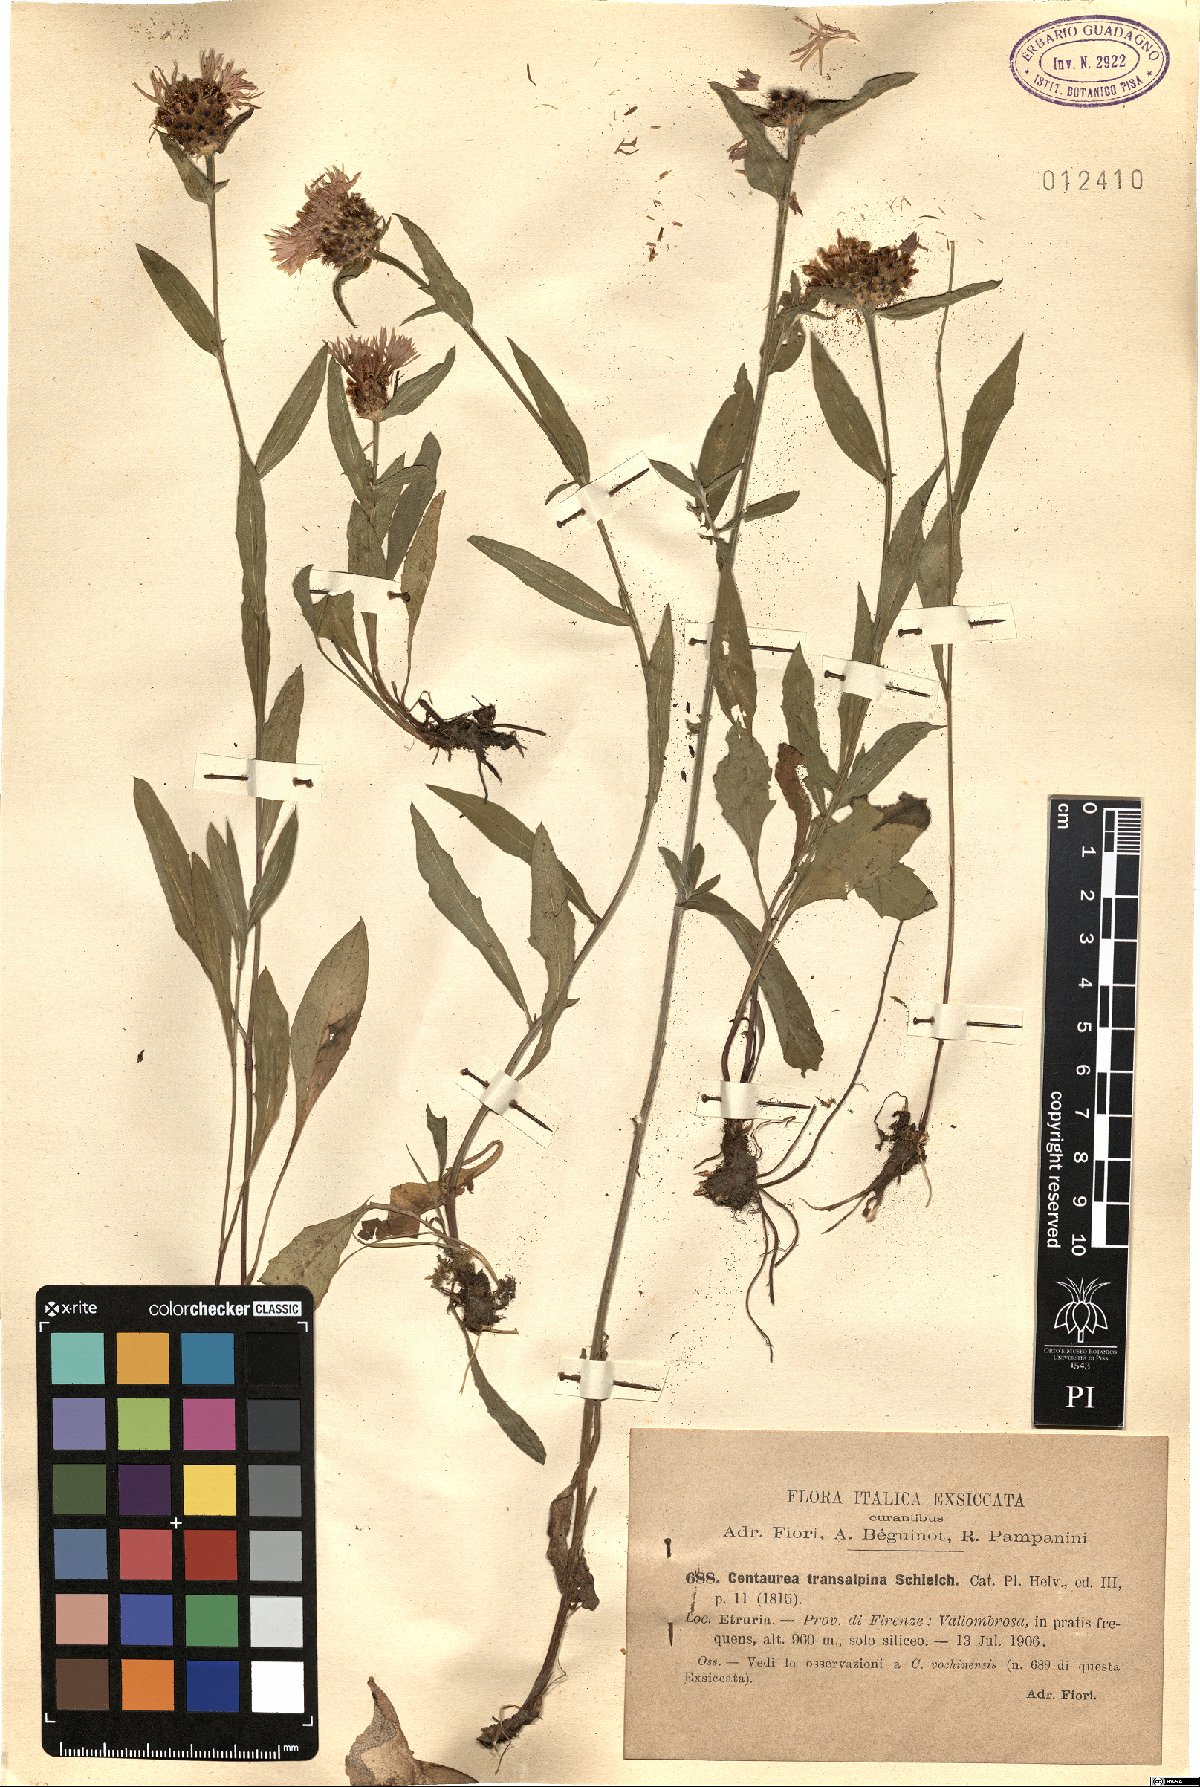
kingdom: Plantae
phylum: Tracheophyta
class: Magnoliopsida
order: Asterales
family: Asteraceae
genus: Centaurea
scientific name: Centaurea nigrescens
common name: Tyrol knapweed
